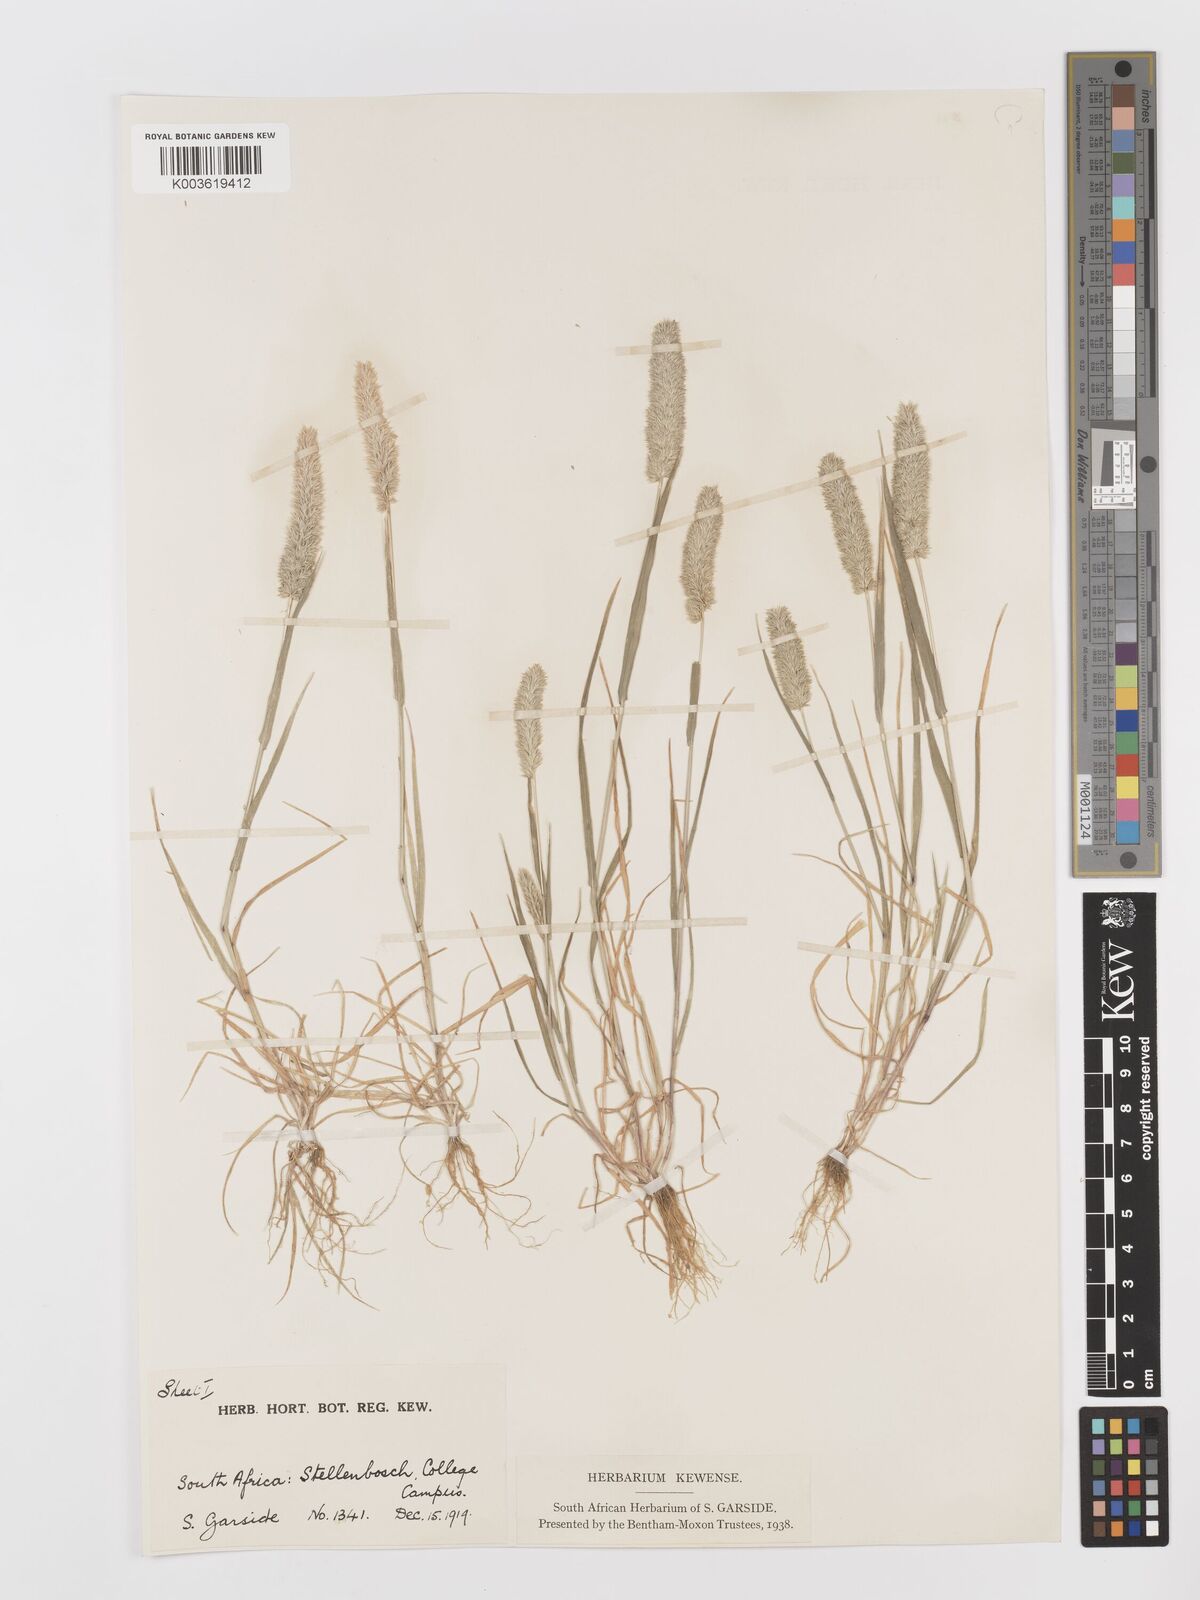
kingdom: Plantae
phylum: Tracheophyta
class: Liliopsida
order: Poales
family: Poaceae
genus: Rostraria
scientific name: Rostraria cristata
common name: Mediterranean hair-grass
